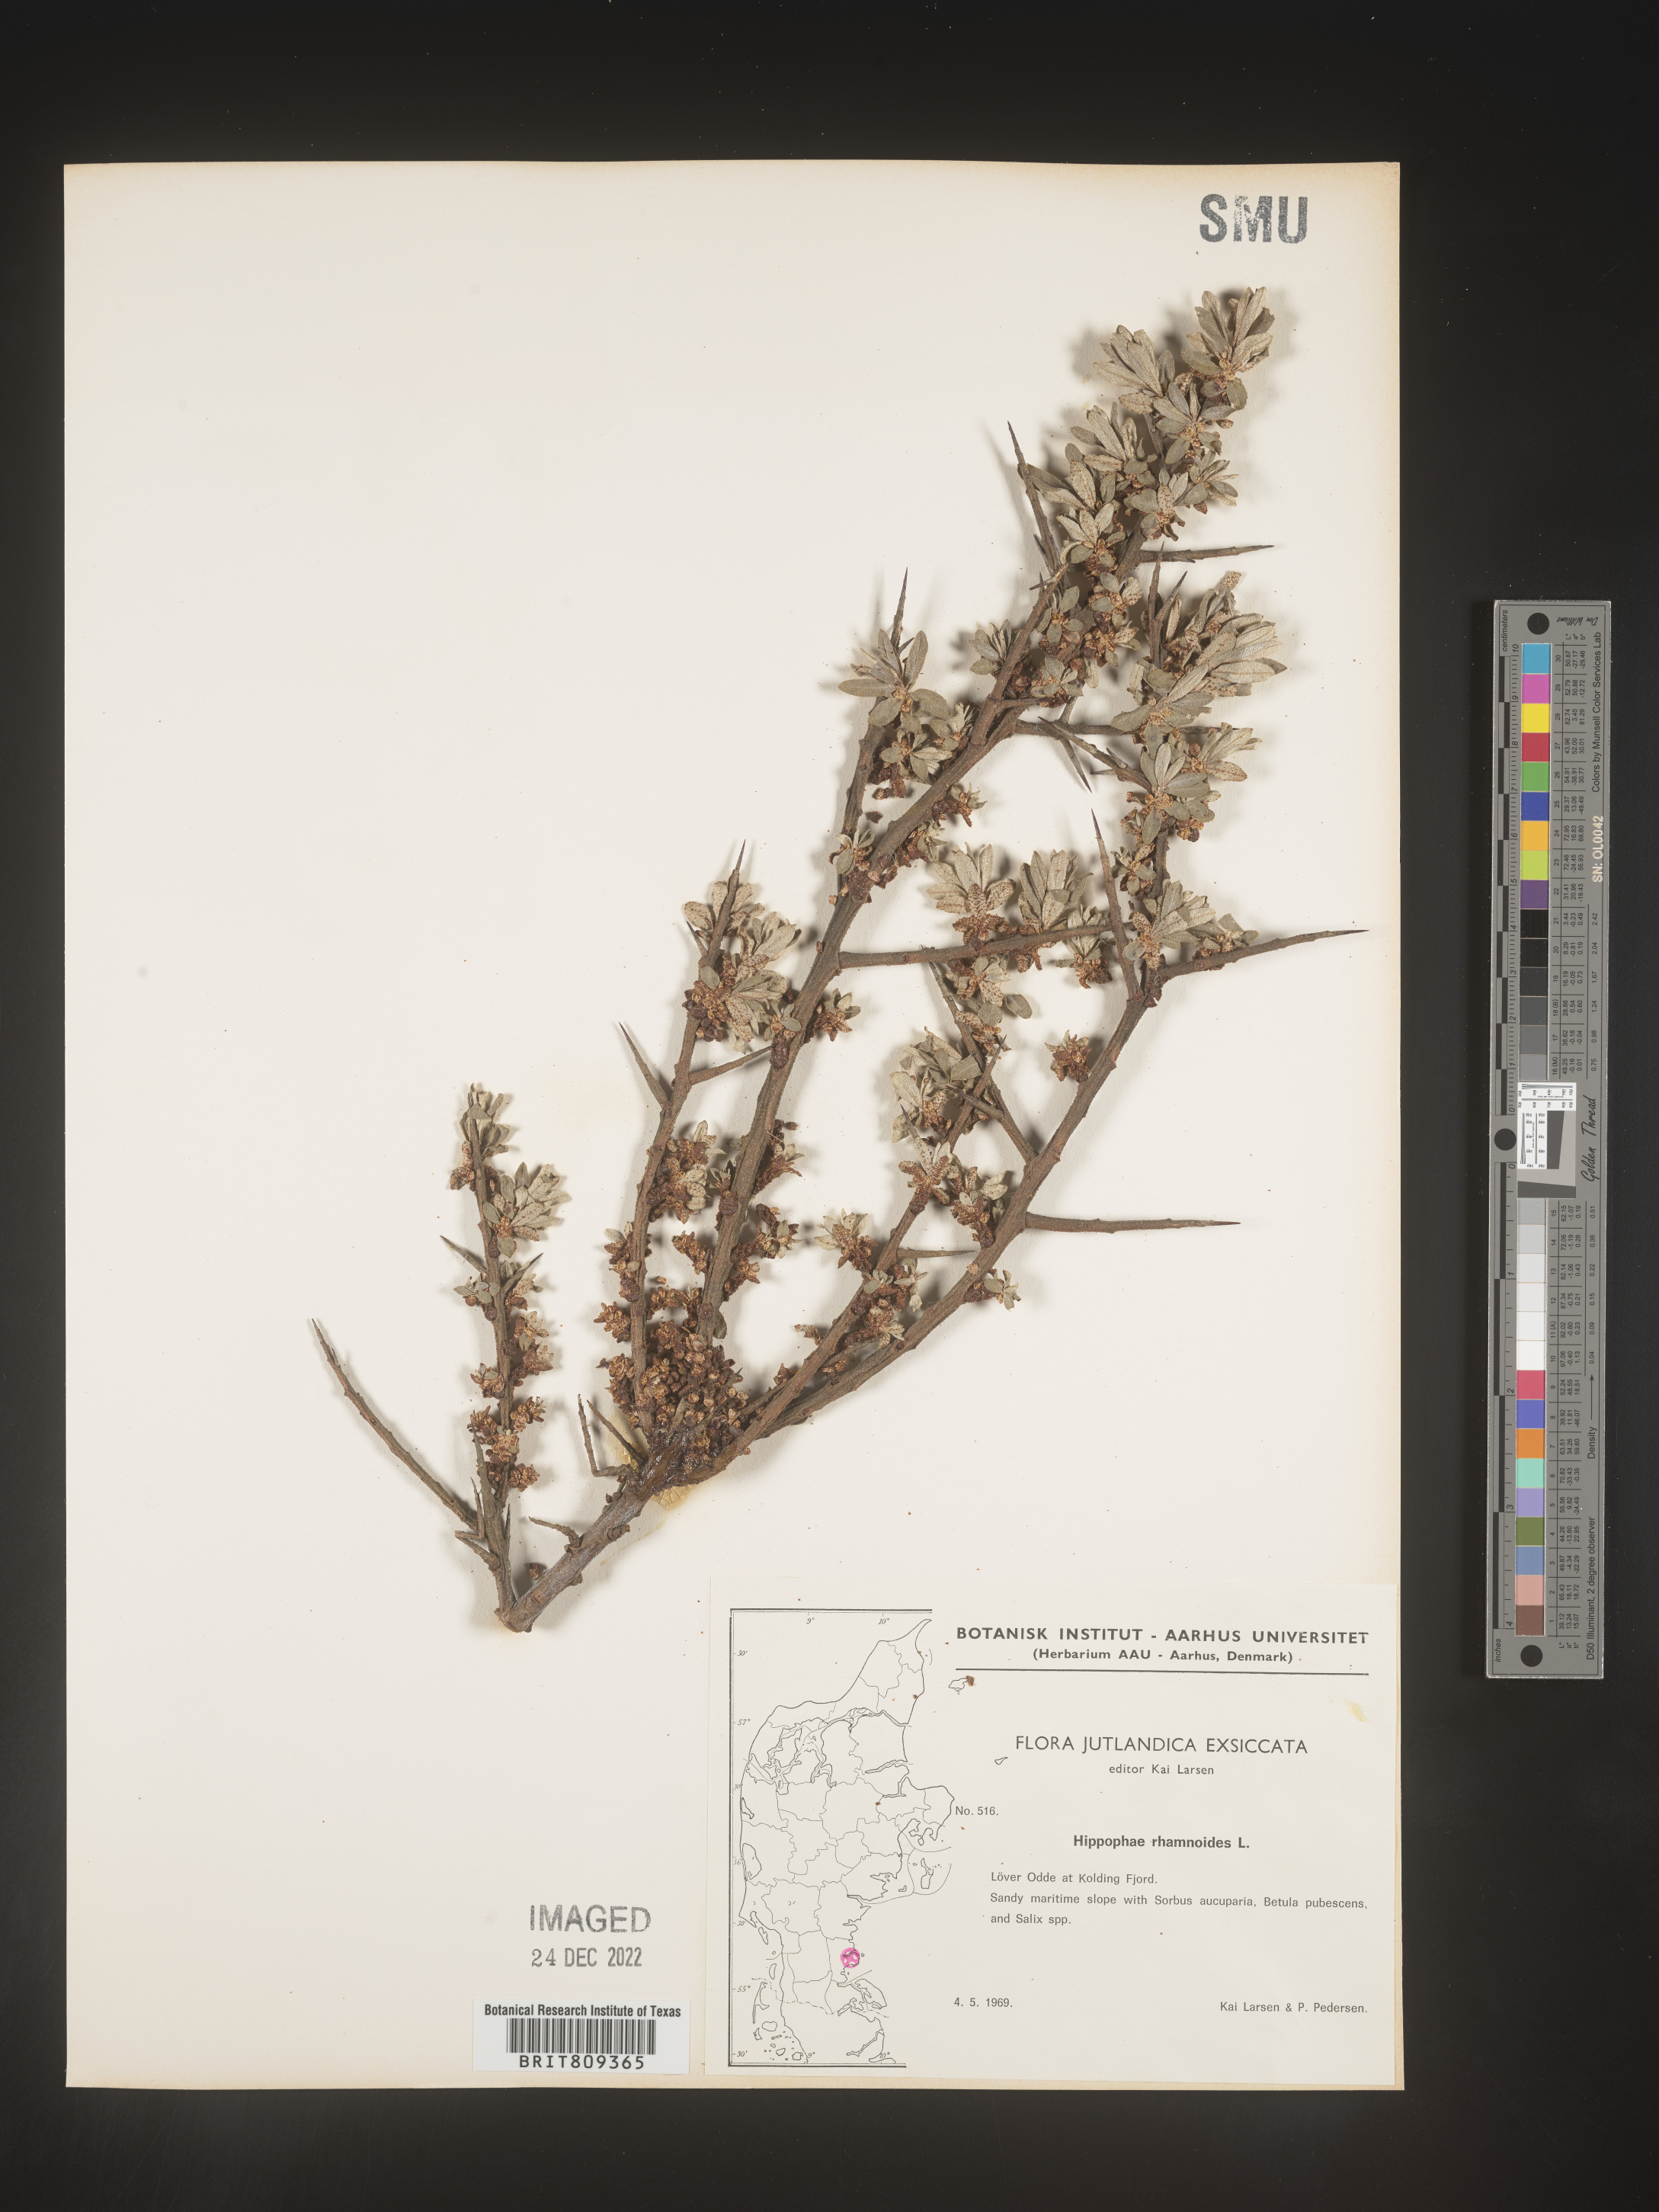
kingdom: Plantae
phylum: Tracheophyta
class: Magnoliopsida
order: Rosales
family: Elaeagnaceae
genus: Hippophae
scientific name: Hippophae
